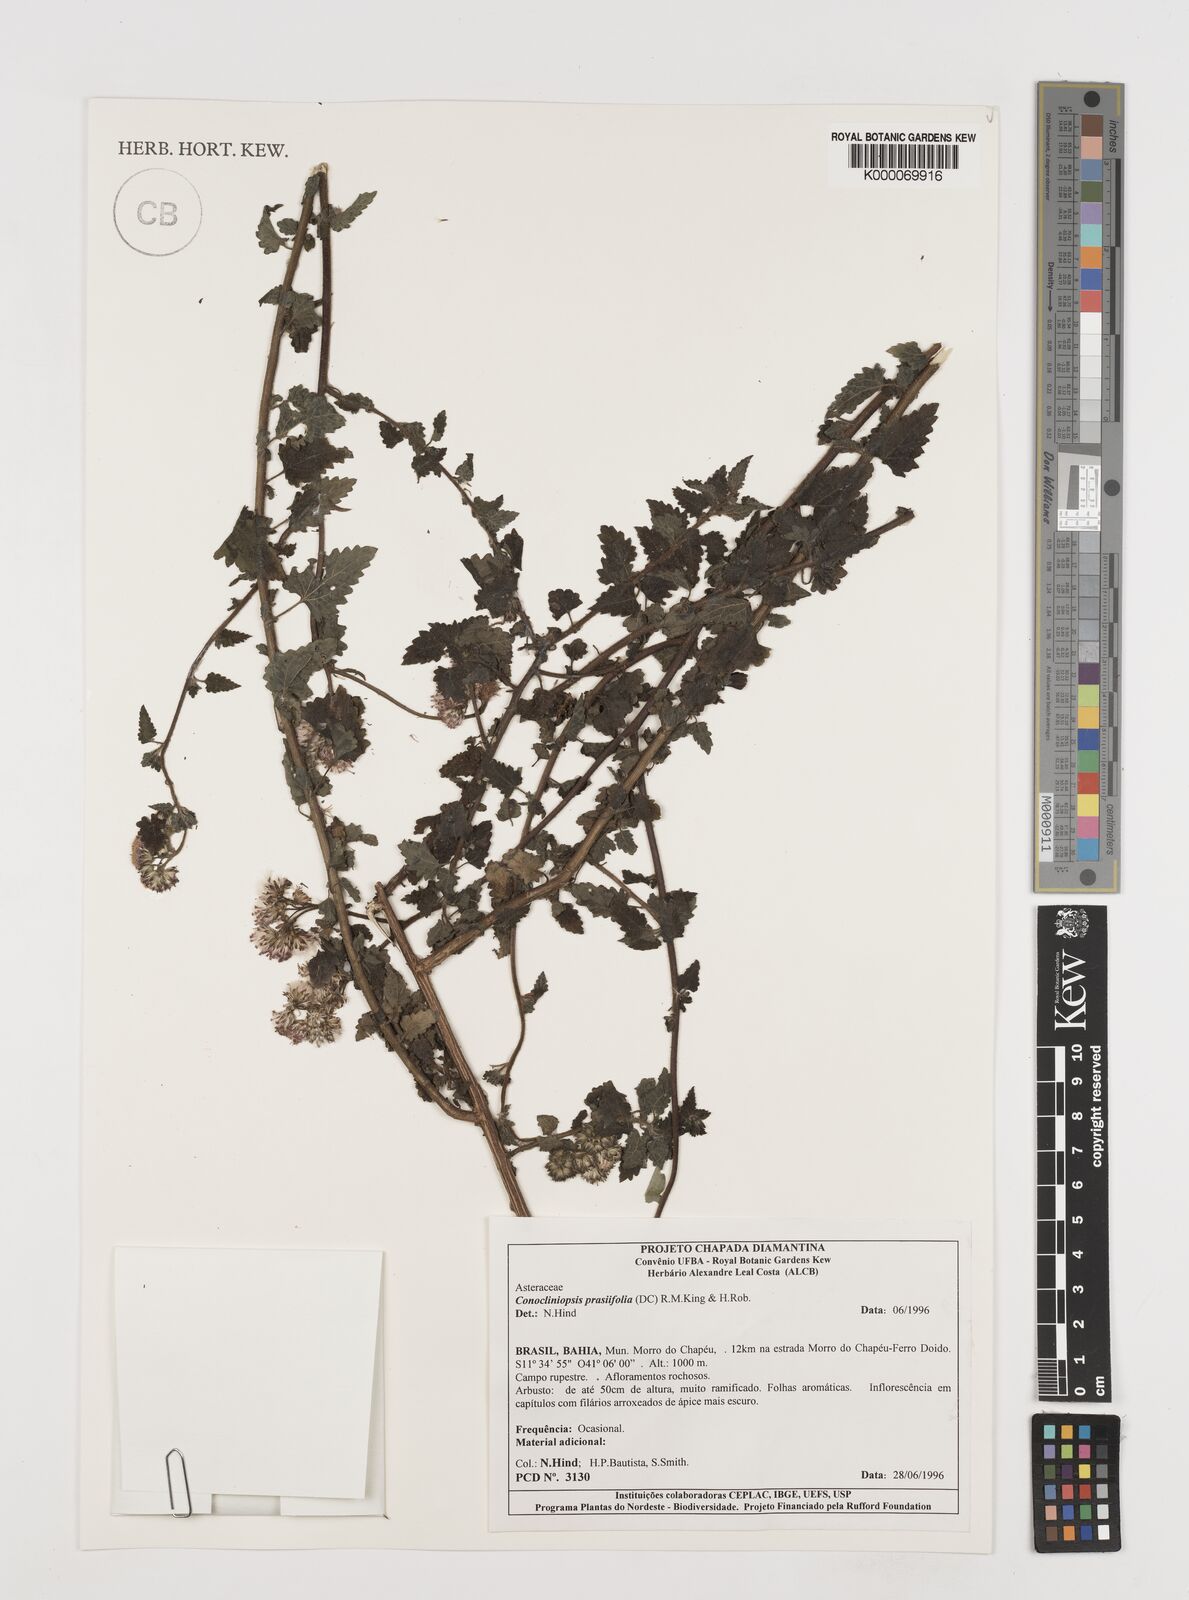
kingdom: Plantae
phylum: Tracheophyta
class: Magnoliopsida
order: Asterales
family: Asteraceae
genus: Conocliniopsis
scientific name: Conocliniopsis grossedentata
